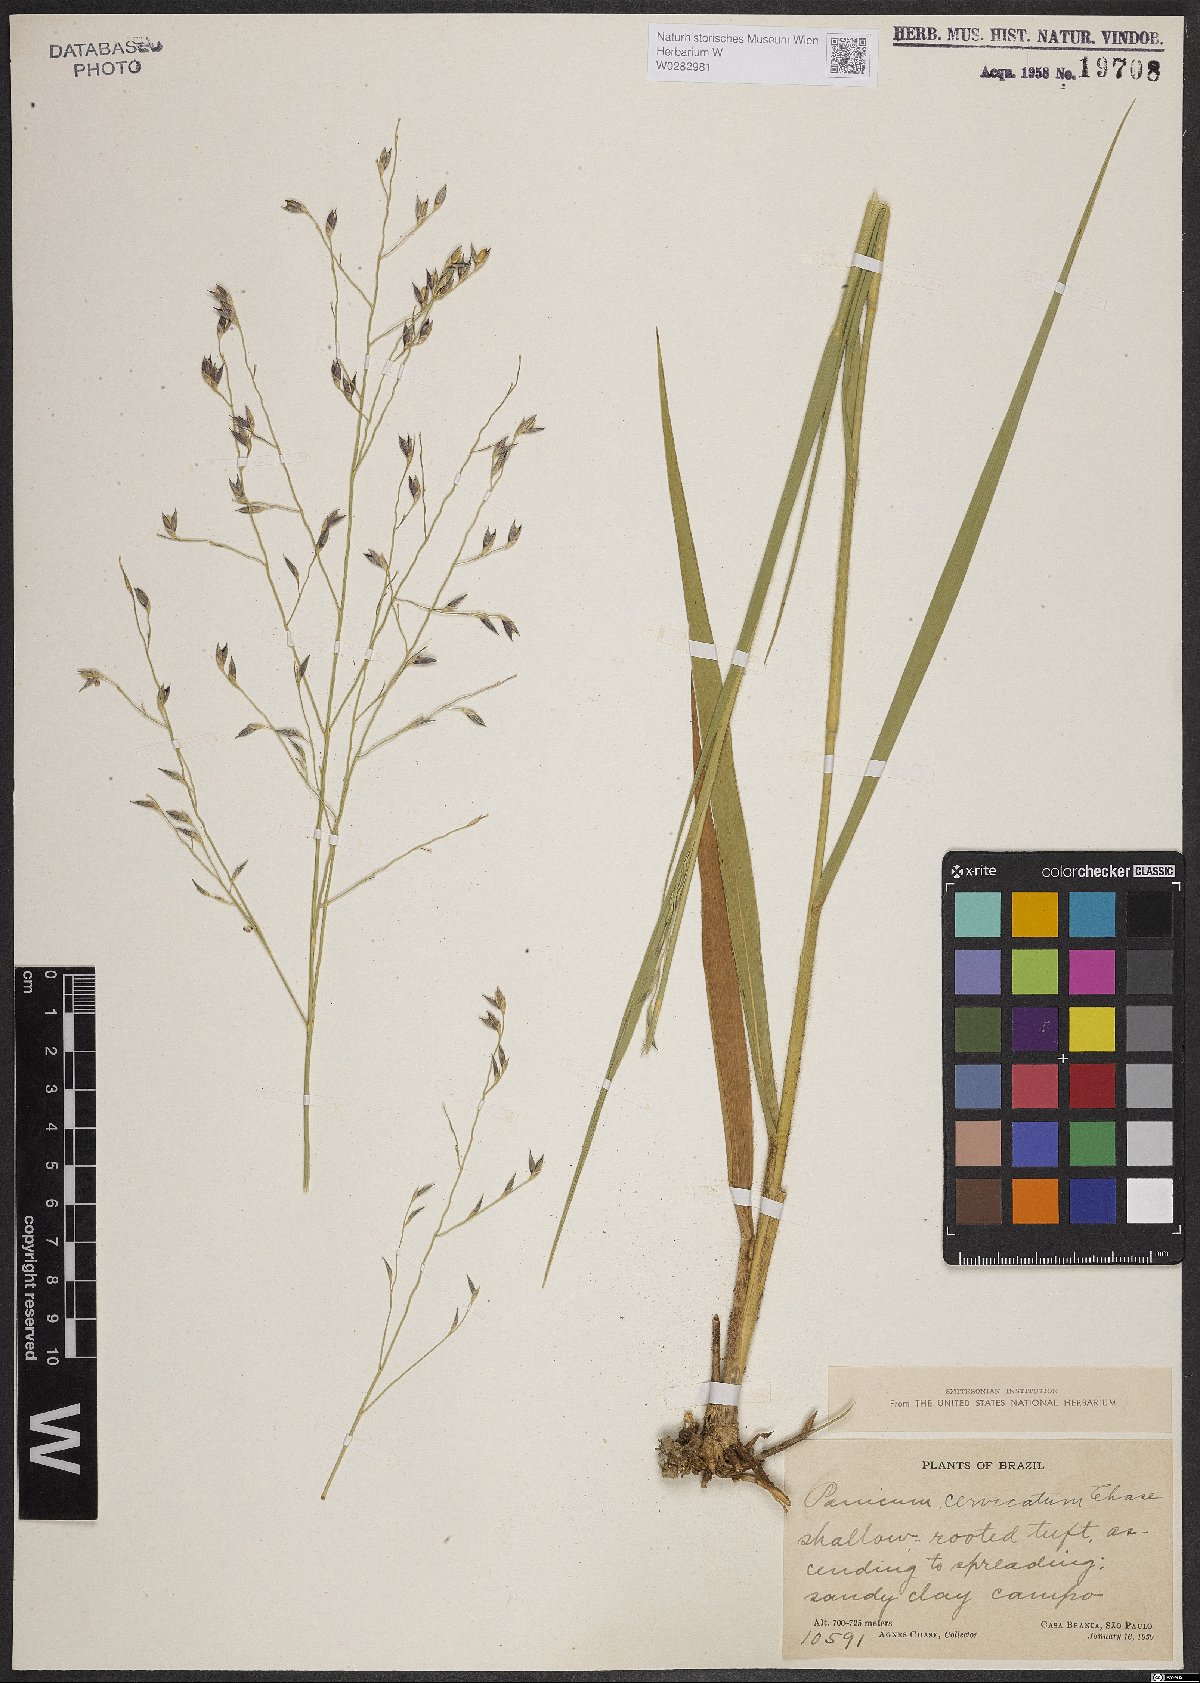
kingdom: Plantae
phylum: Tracheophyta
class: Liliopsida
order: Poales
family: Poaceae
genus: Panicum
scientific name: Panicum cervicatum
